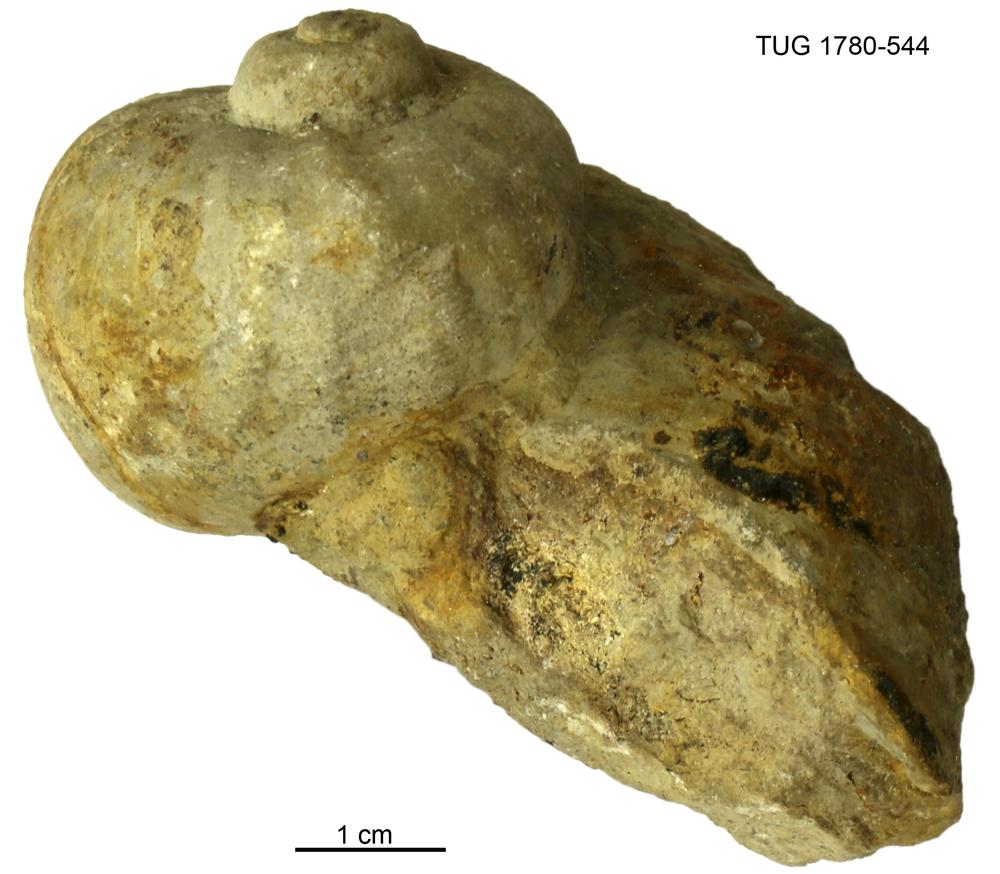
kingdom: Animalia
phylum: Mollusca
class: Gastropoda
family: Holopeidae
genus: Holopea
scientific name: Holopea ampullacea
